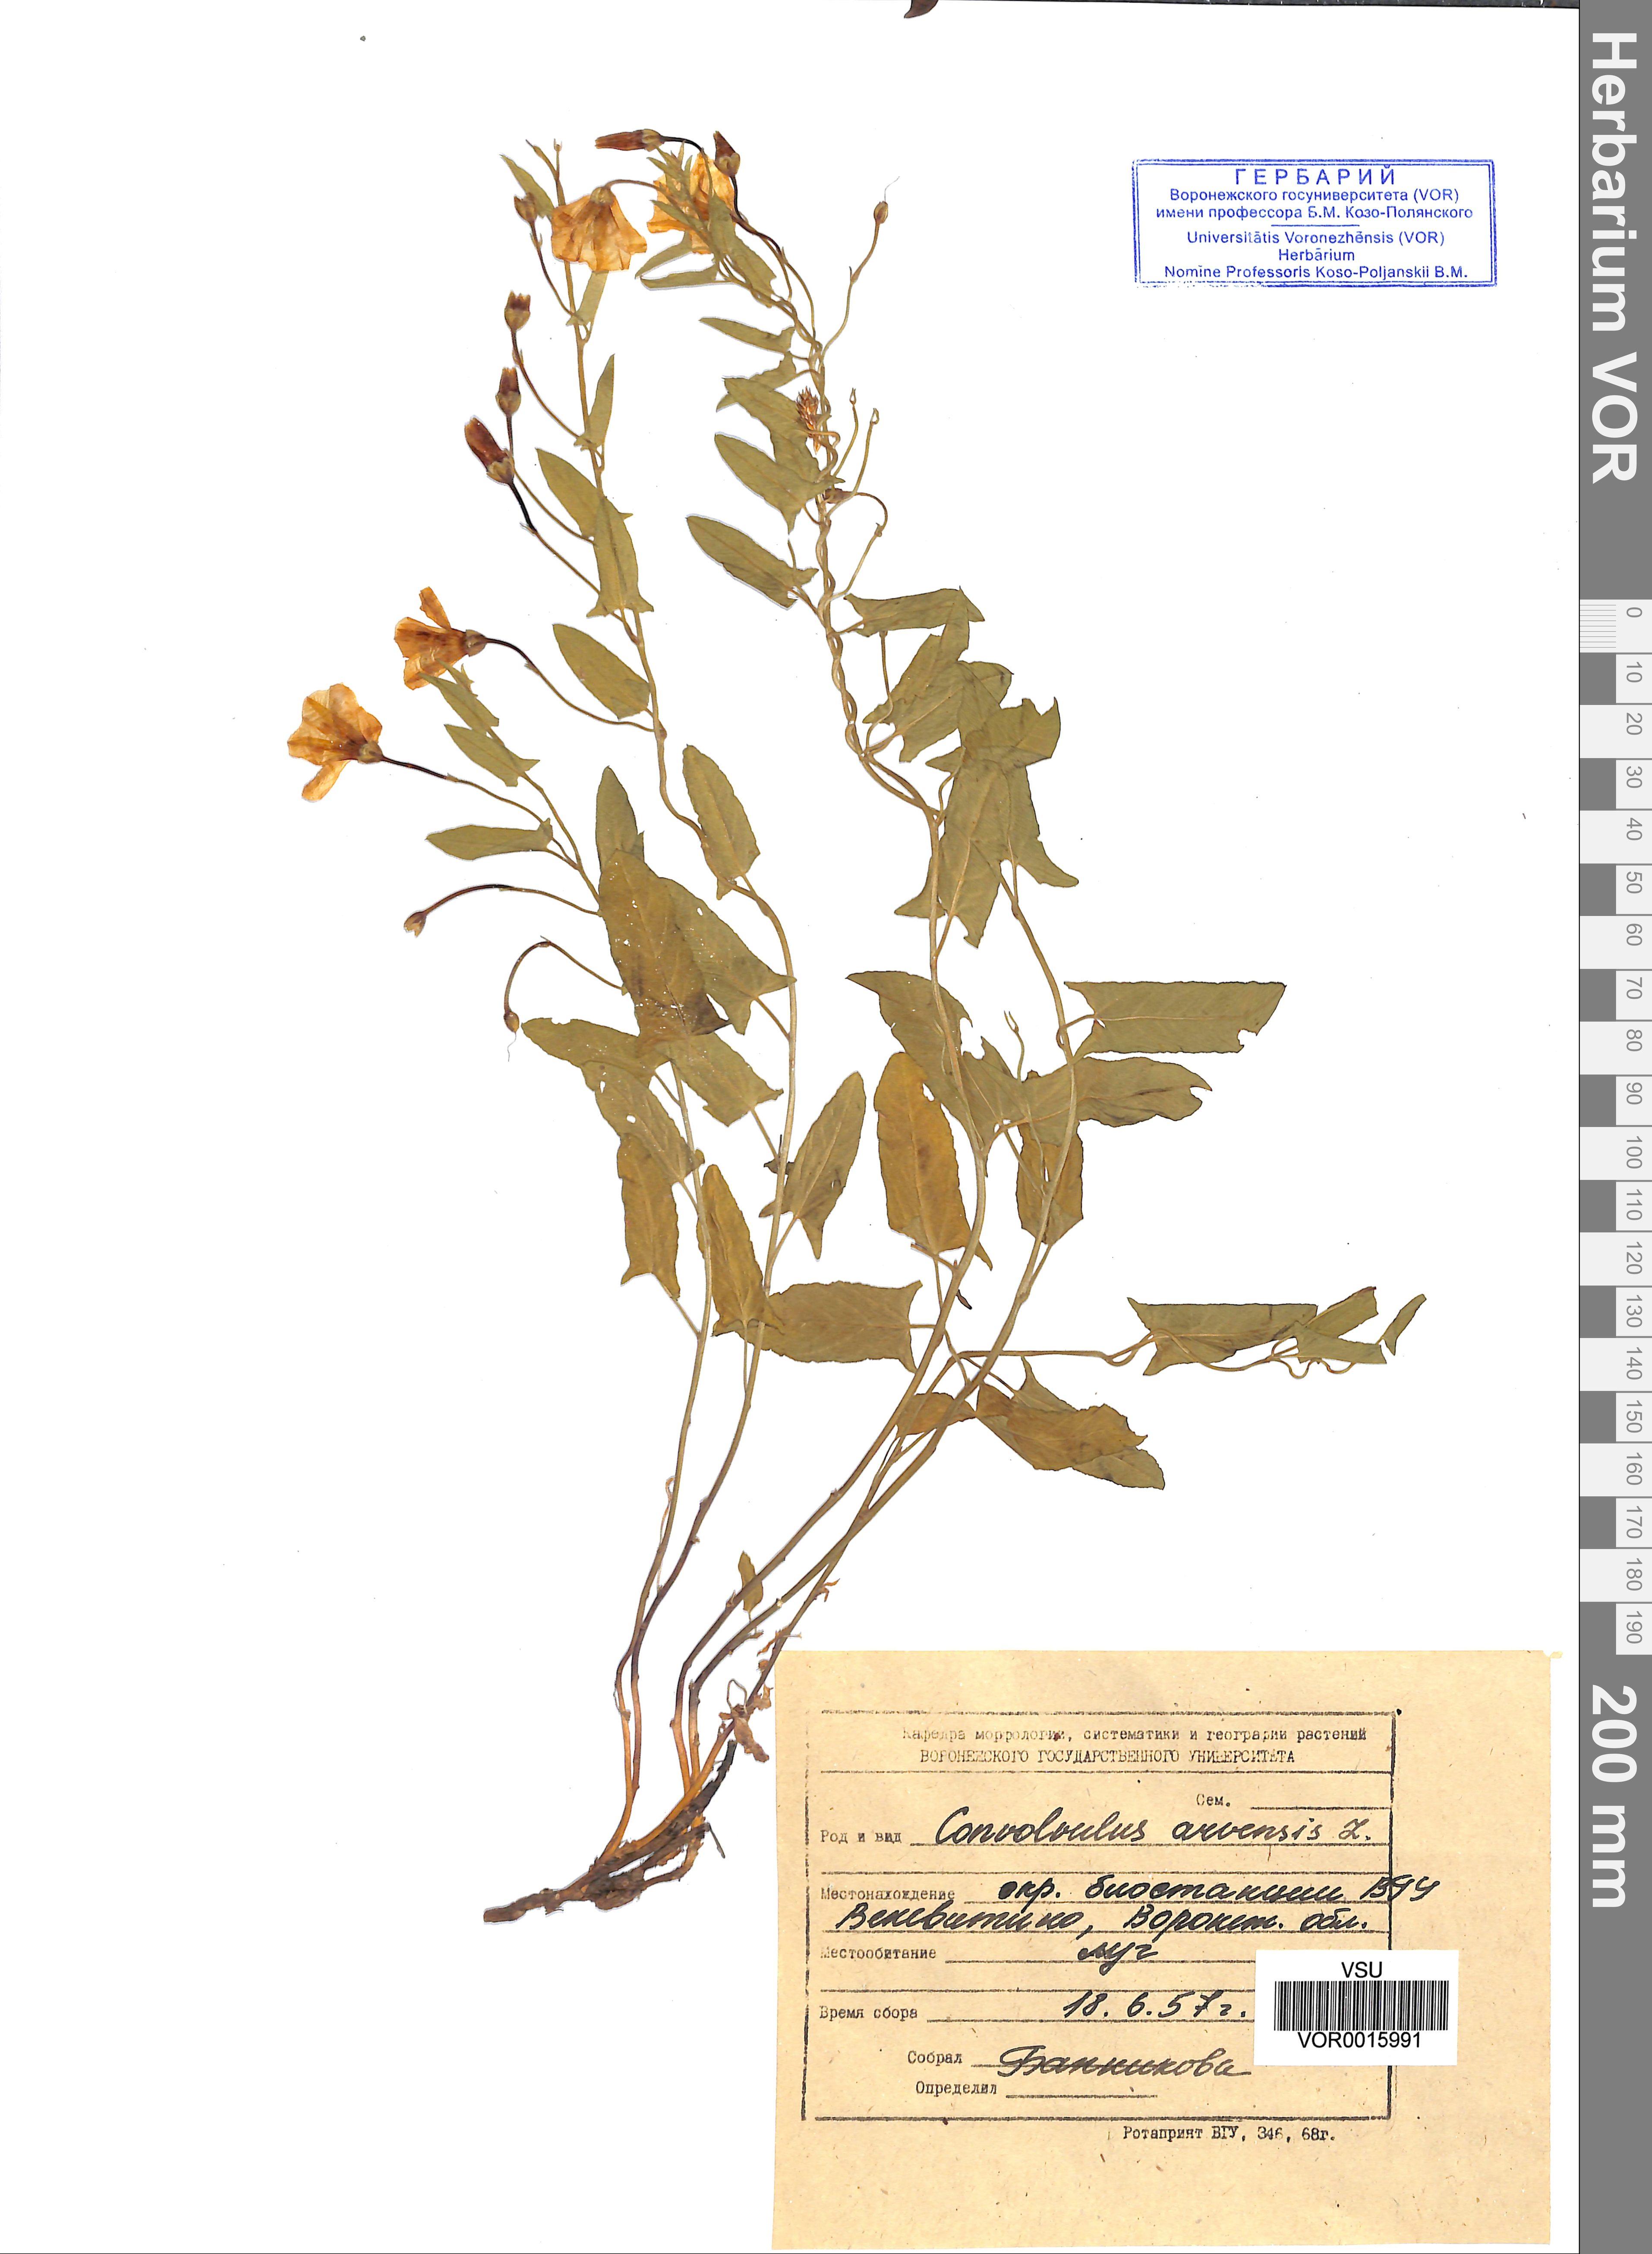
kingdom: Plantae
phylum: Tracheophyta
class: Magnoliopsida
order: Solanales
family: Convolvulaceae
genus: Convolvulus
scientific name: Convolvulus arvensis
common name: Field bindweed
